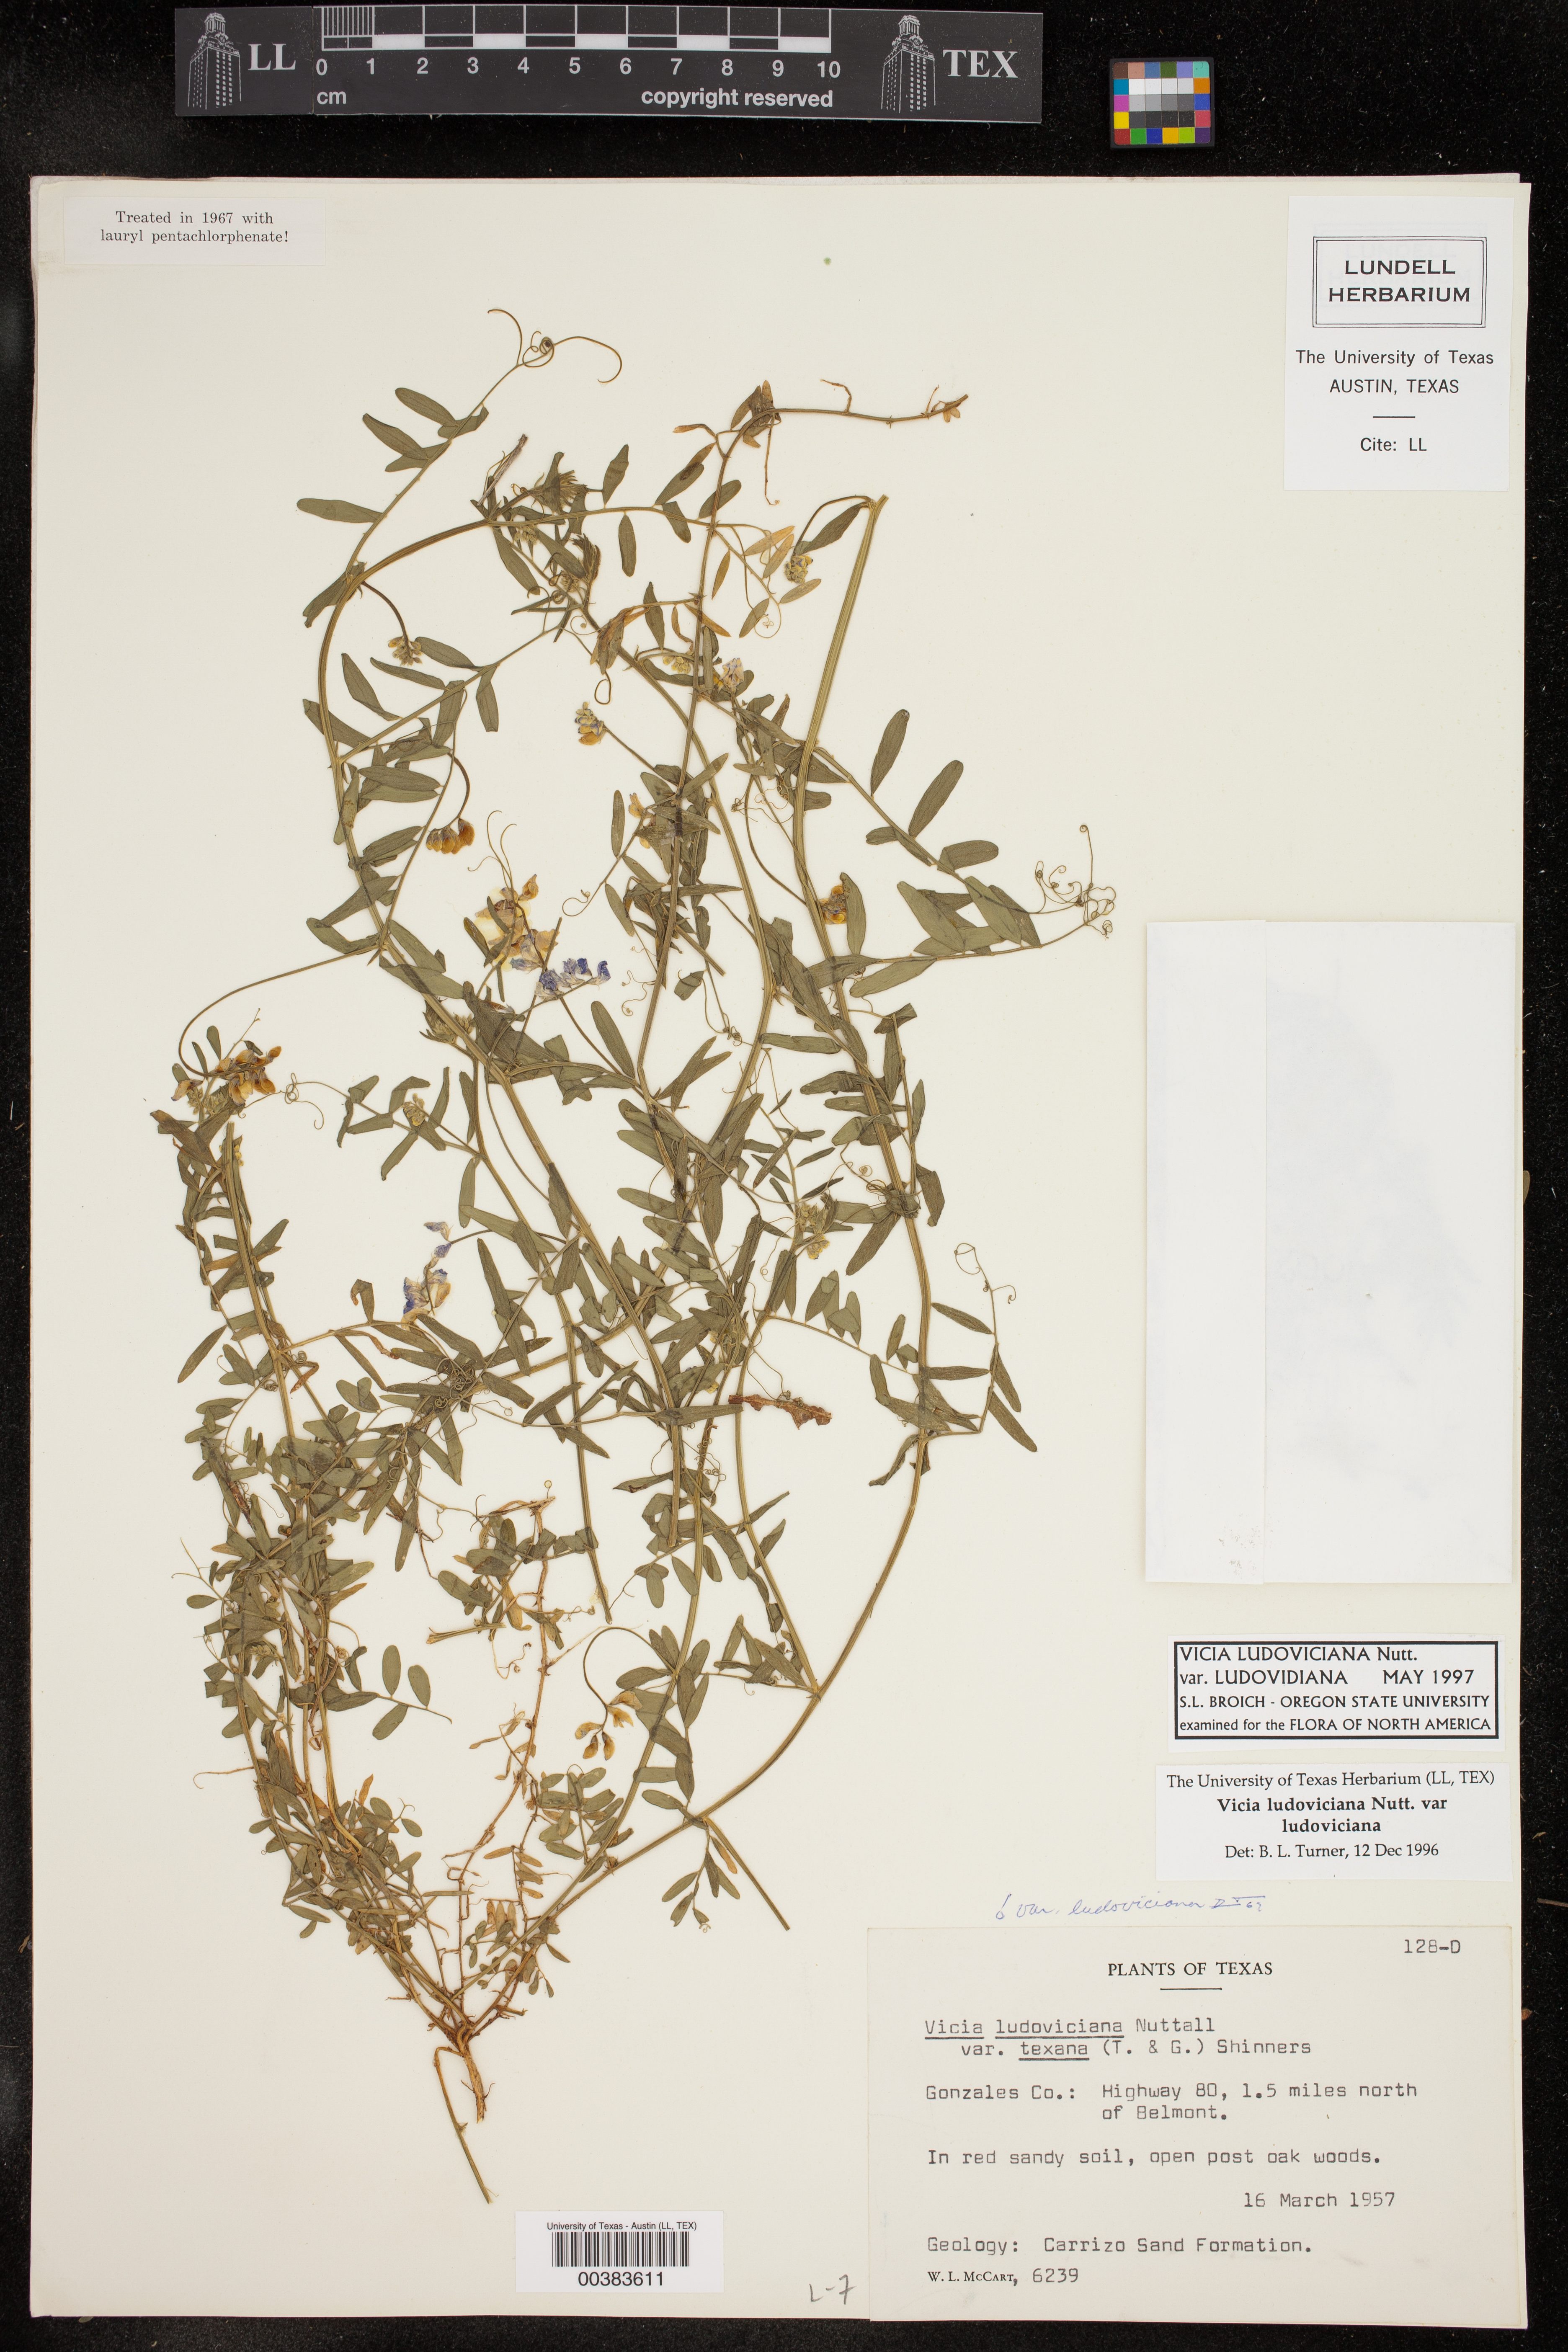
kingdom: Plantae
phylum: Tracheophyta
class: Magnoliopsida
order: Fabales
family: Fabaceae
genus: Vicia
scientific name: Vicia ludoviciana
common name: Louisiana vetch
